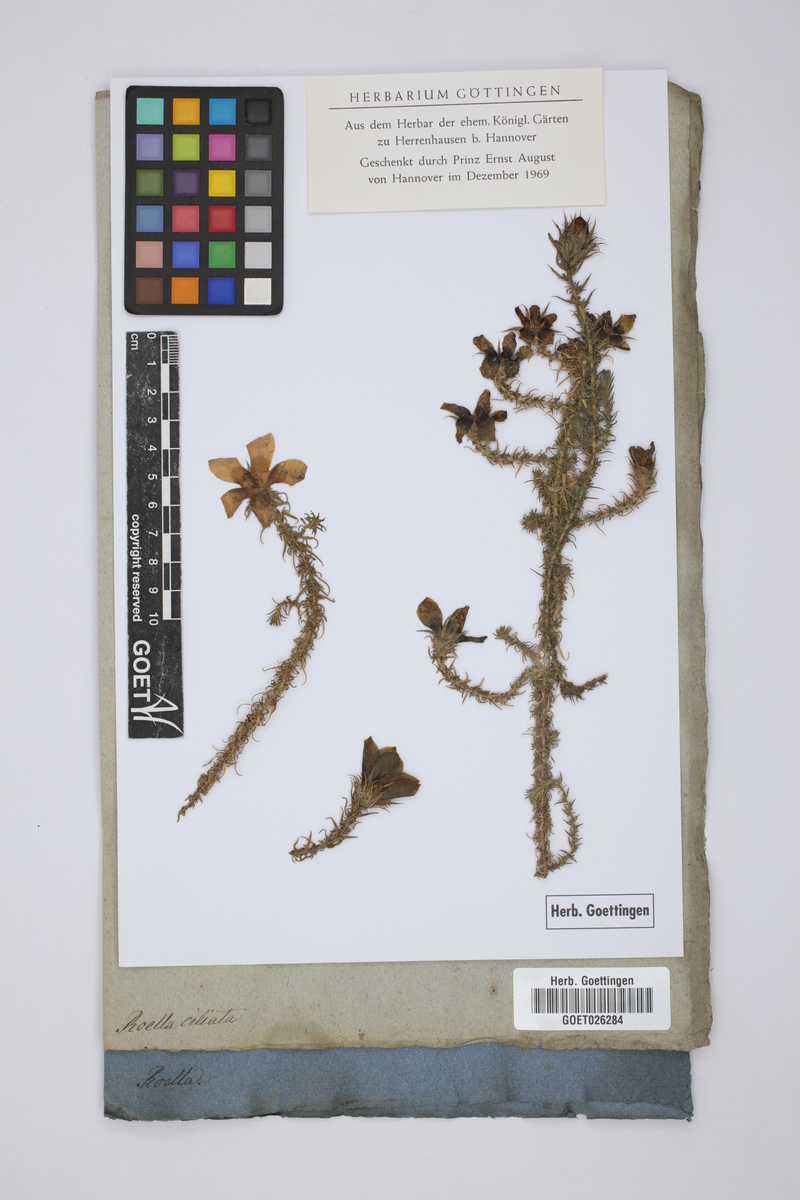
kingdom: Plantae
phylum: Tracheophyta
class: Magnoliopsida
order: Asterales
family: Campanulaceae
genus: Roella
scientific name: Roella ciliata
